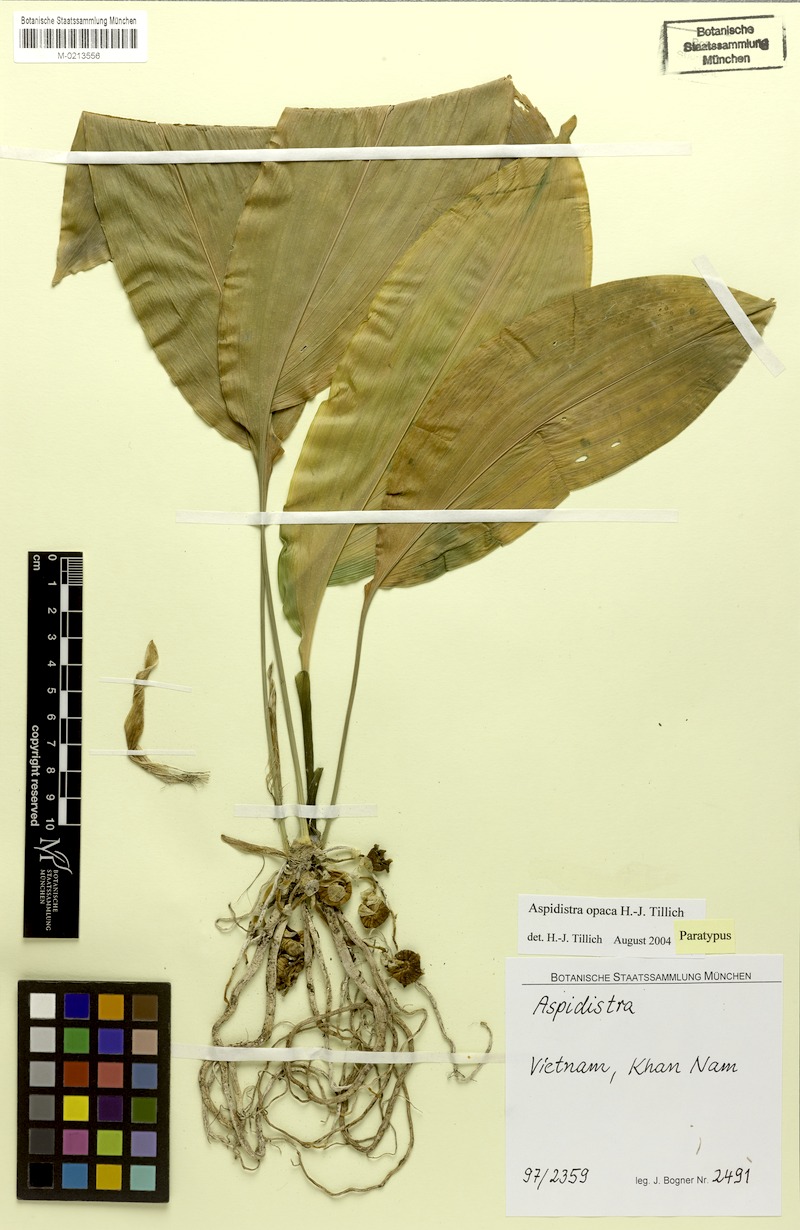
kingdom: Plantae
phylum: Tracheophyta
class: Liliopsida
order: Asparagales
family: Asparagaceae
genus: Aspidistra
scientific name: Aspidistra opaca
